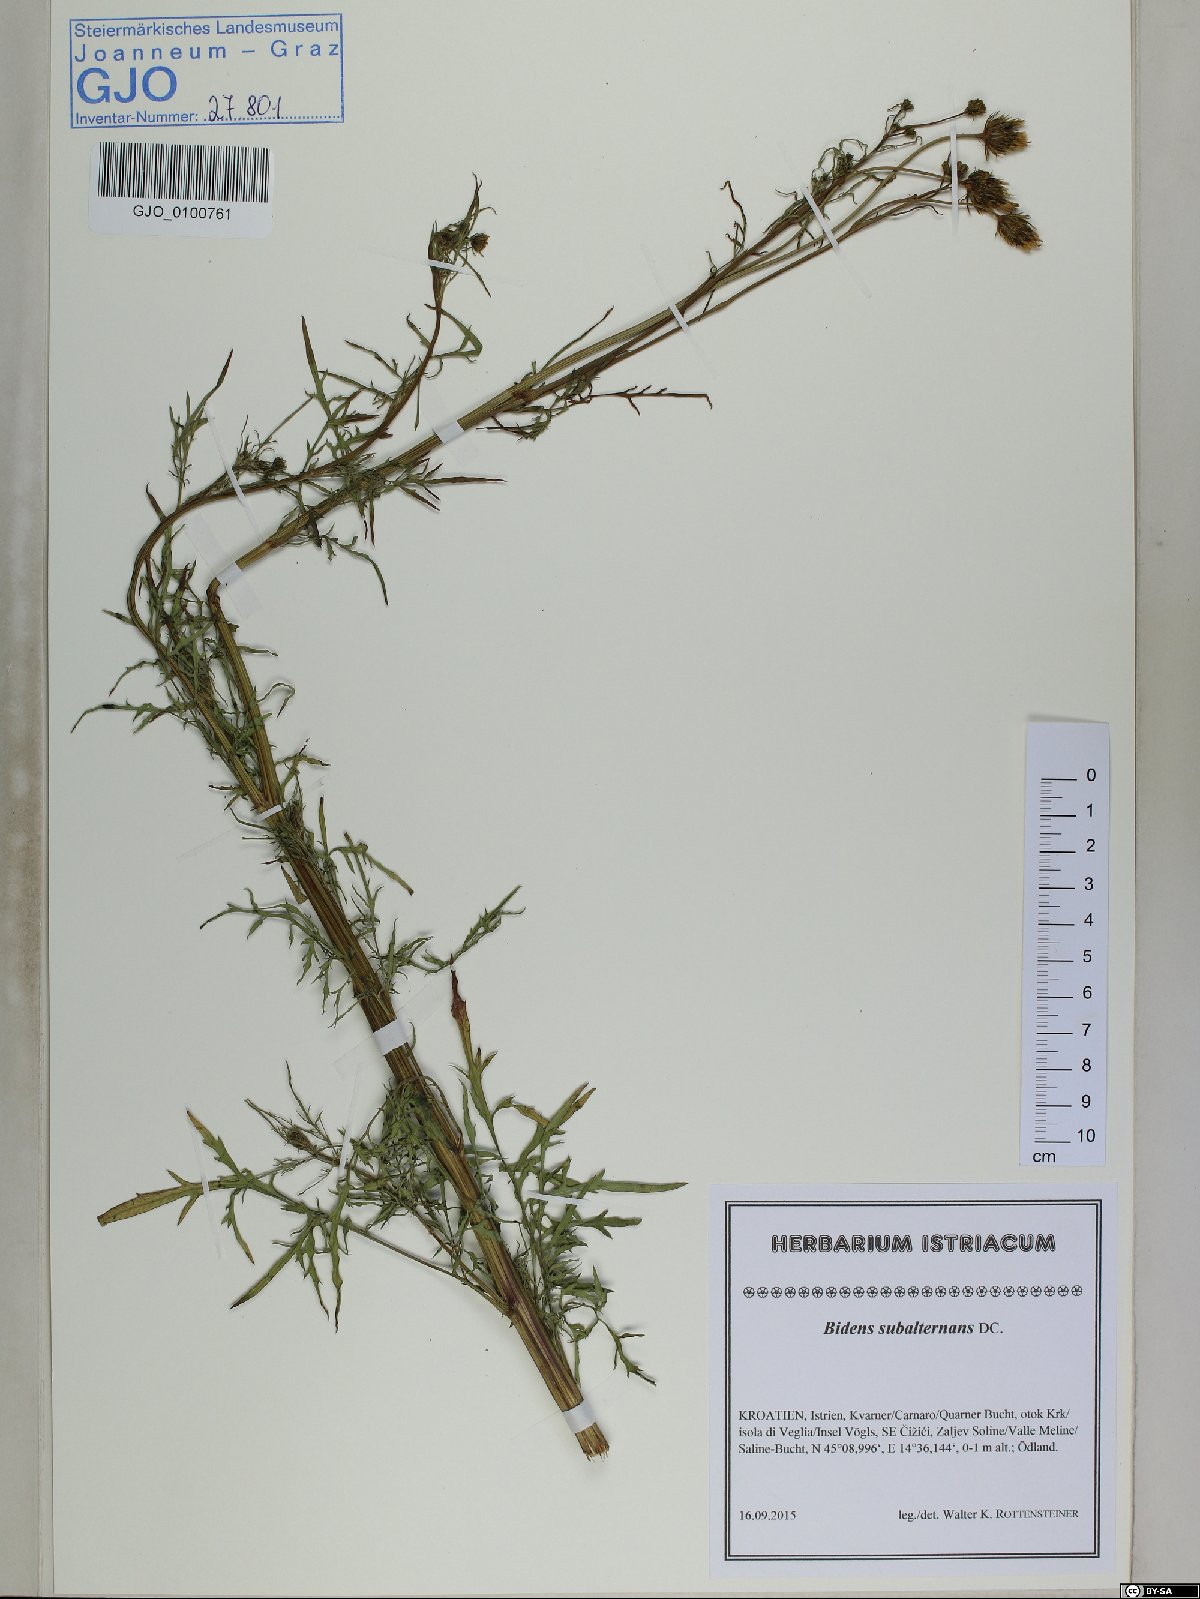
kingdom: Plantae
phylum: Tracheophyta
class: Magnoliopsida
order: Asterales
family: Asteraceae
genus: Bidens
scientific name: Bidens subalternans
